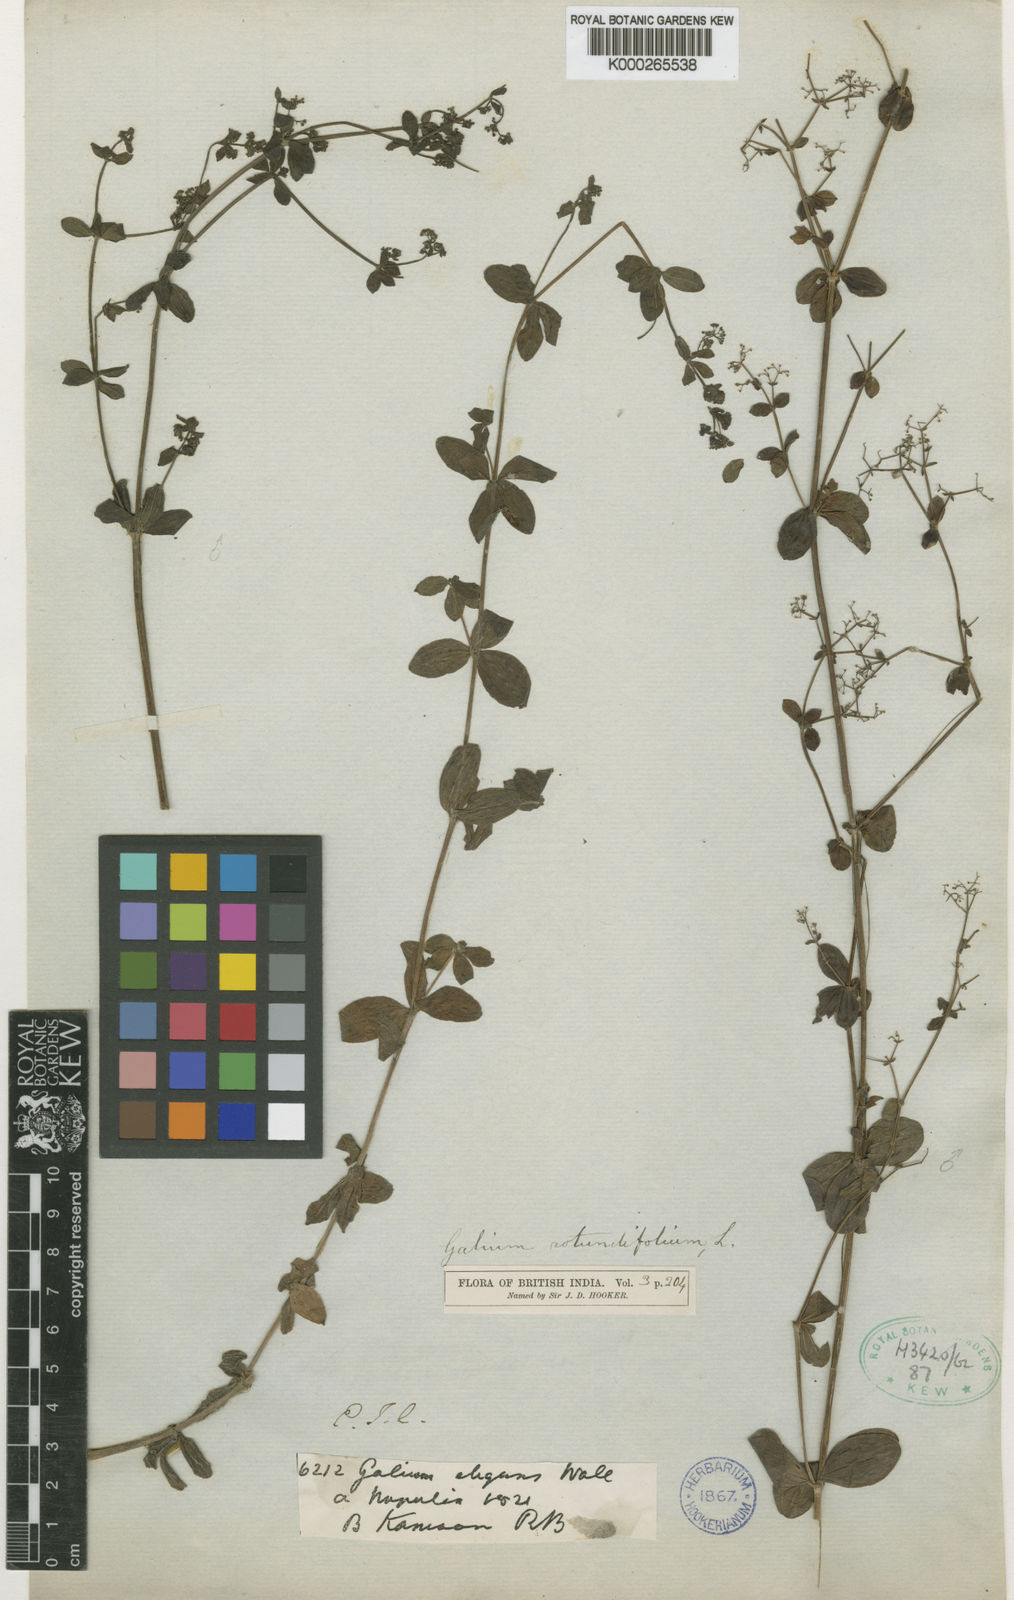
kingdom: Plantae
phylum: Tracheophyta
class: Magnoliopsida
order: Gentianales
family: Rubiaceae
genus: Galium
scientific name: Galium
